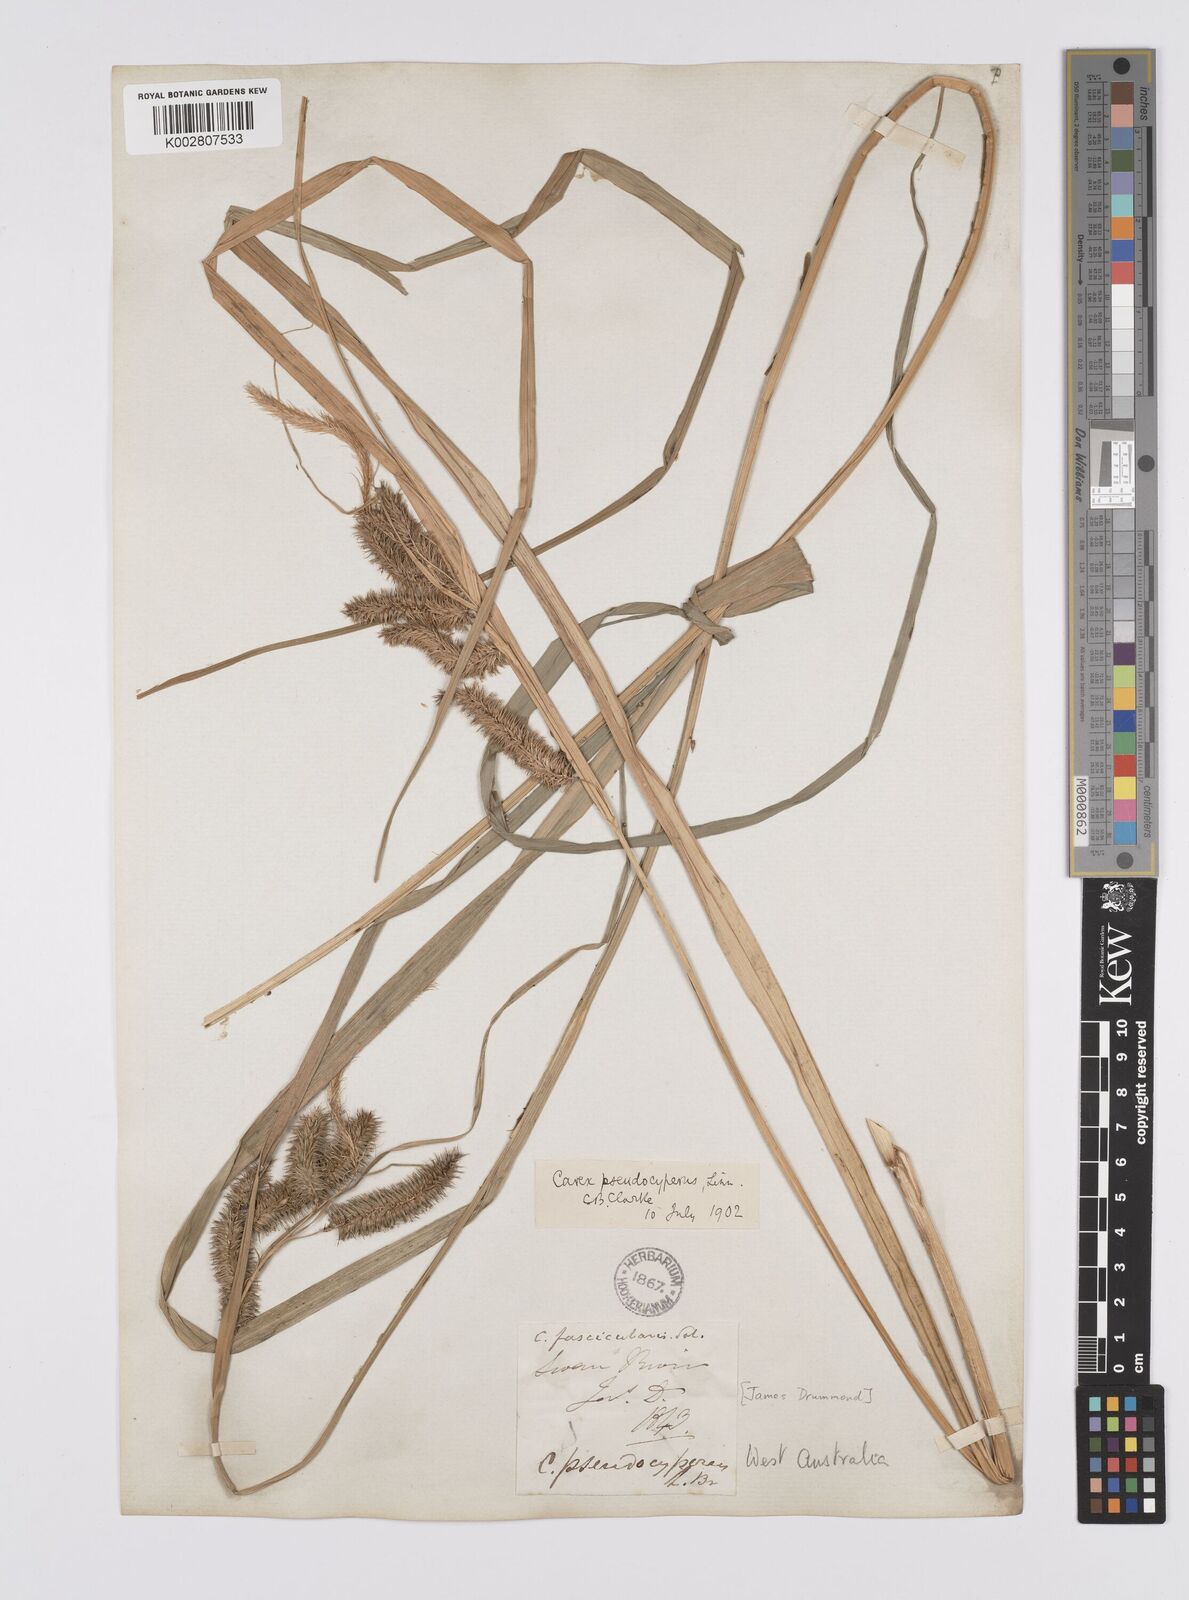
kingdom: Plantae
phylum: Tracheophyta
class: Liliopsida
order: Poales
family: Cyperaceae
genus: Carex
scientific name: Carex cespitosa
